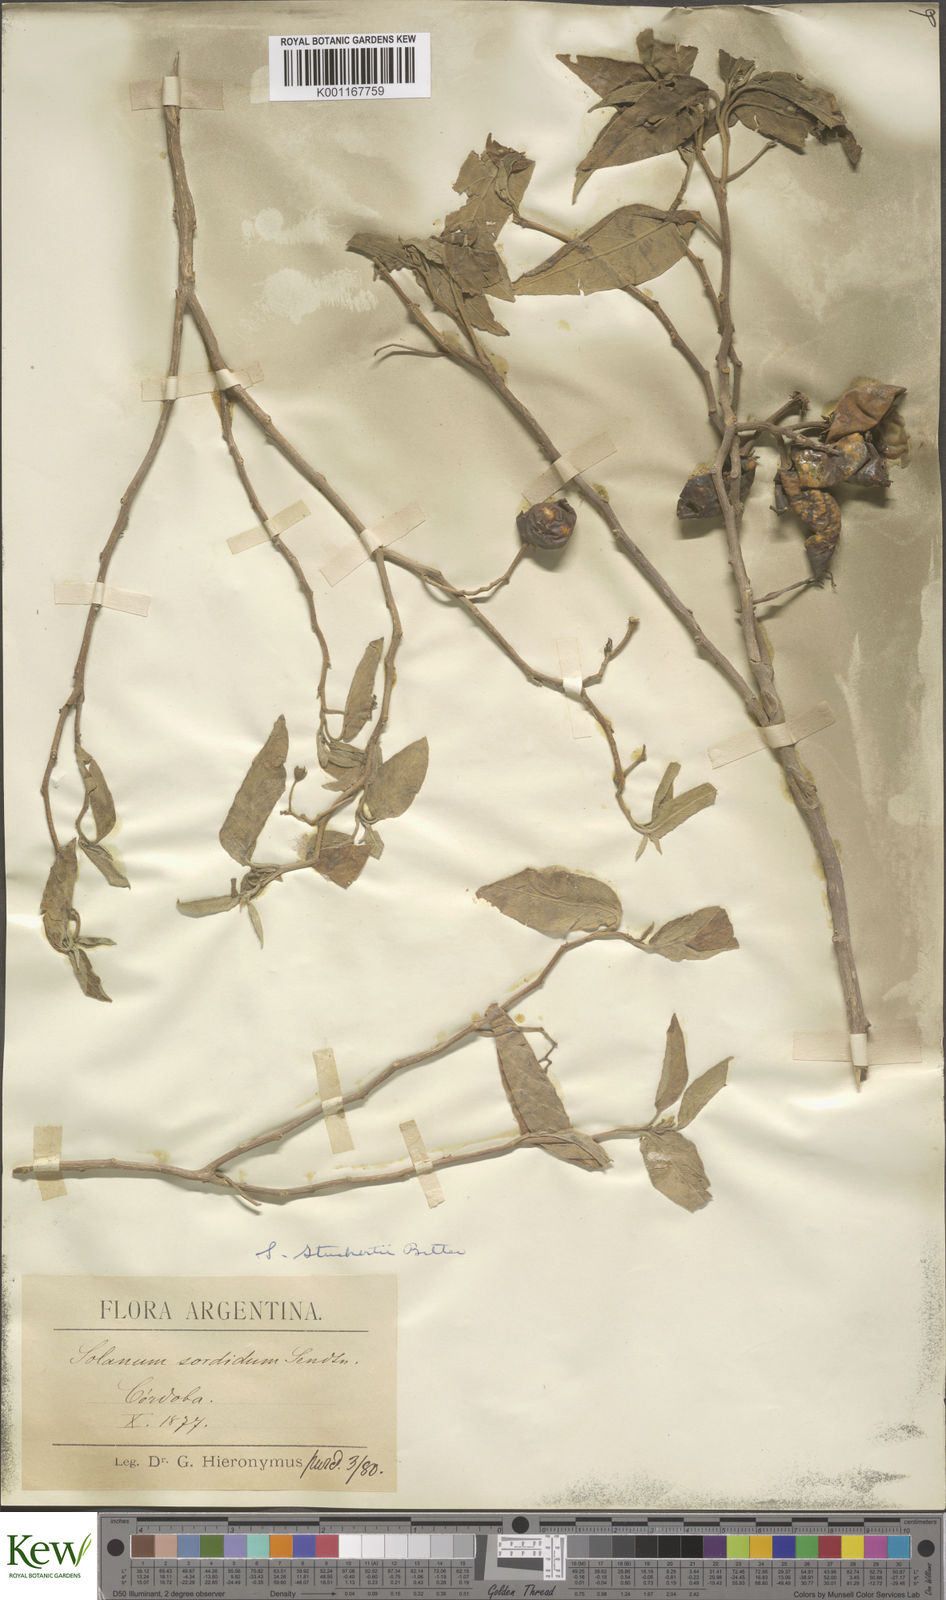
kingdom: Plantae
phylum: Tracheophyta
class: Magnoliopsida
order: Solanales
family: Solanaceae
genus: Solanum
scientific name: Solanum stuckertii
